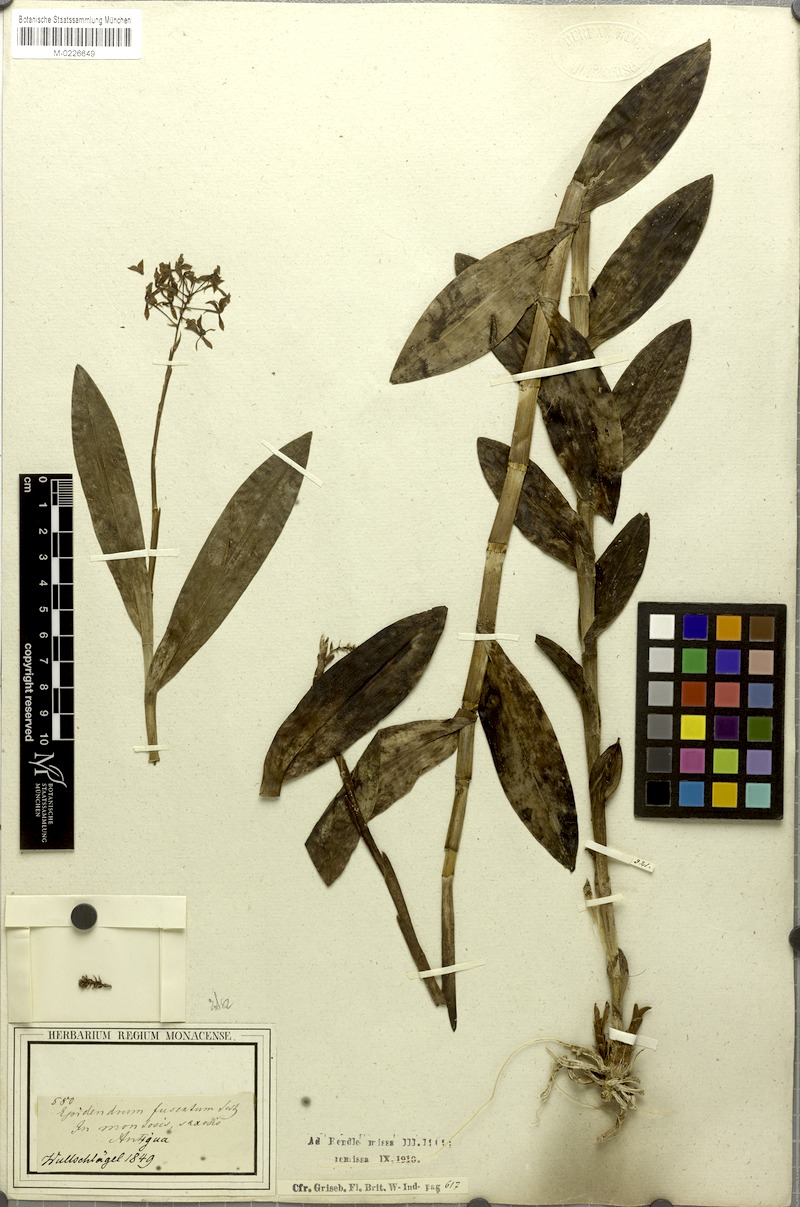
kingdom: Plantae
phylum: Tracheophyta
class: Liliopsida
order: Asparagales
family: Orchidaceae
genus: Epidendrum
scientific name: Epidendrum anceps
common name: Brown-flower butterfly orchid
